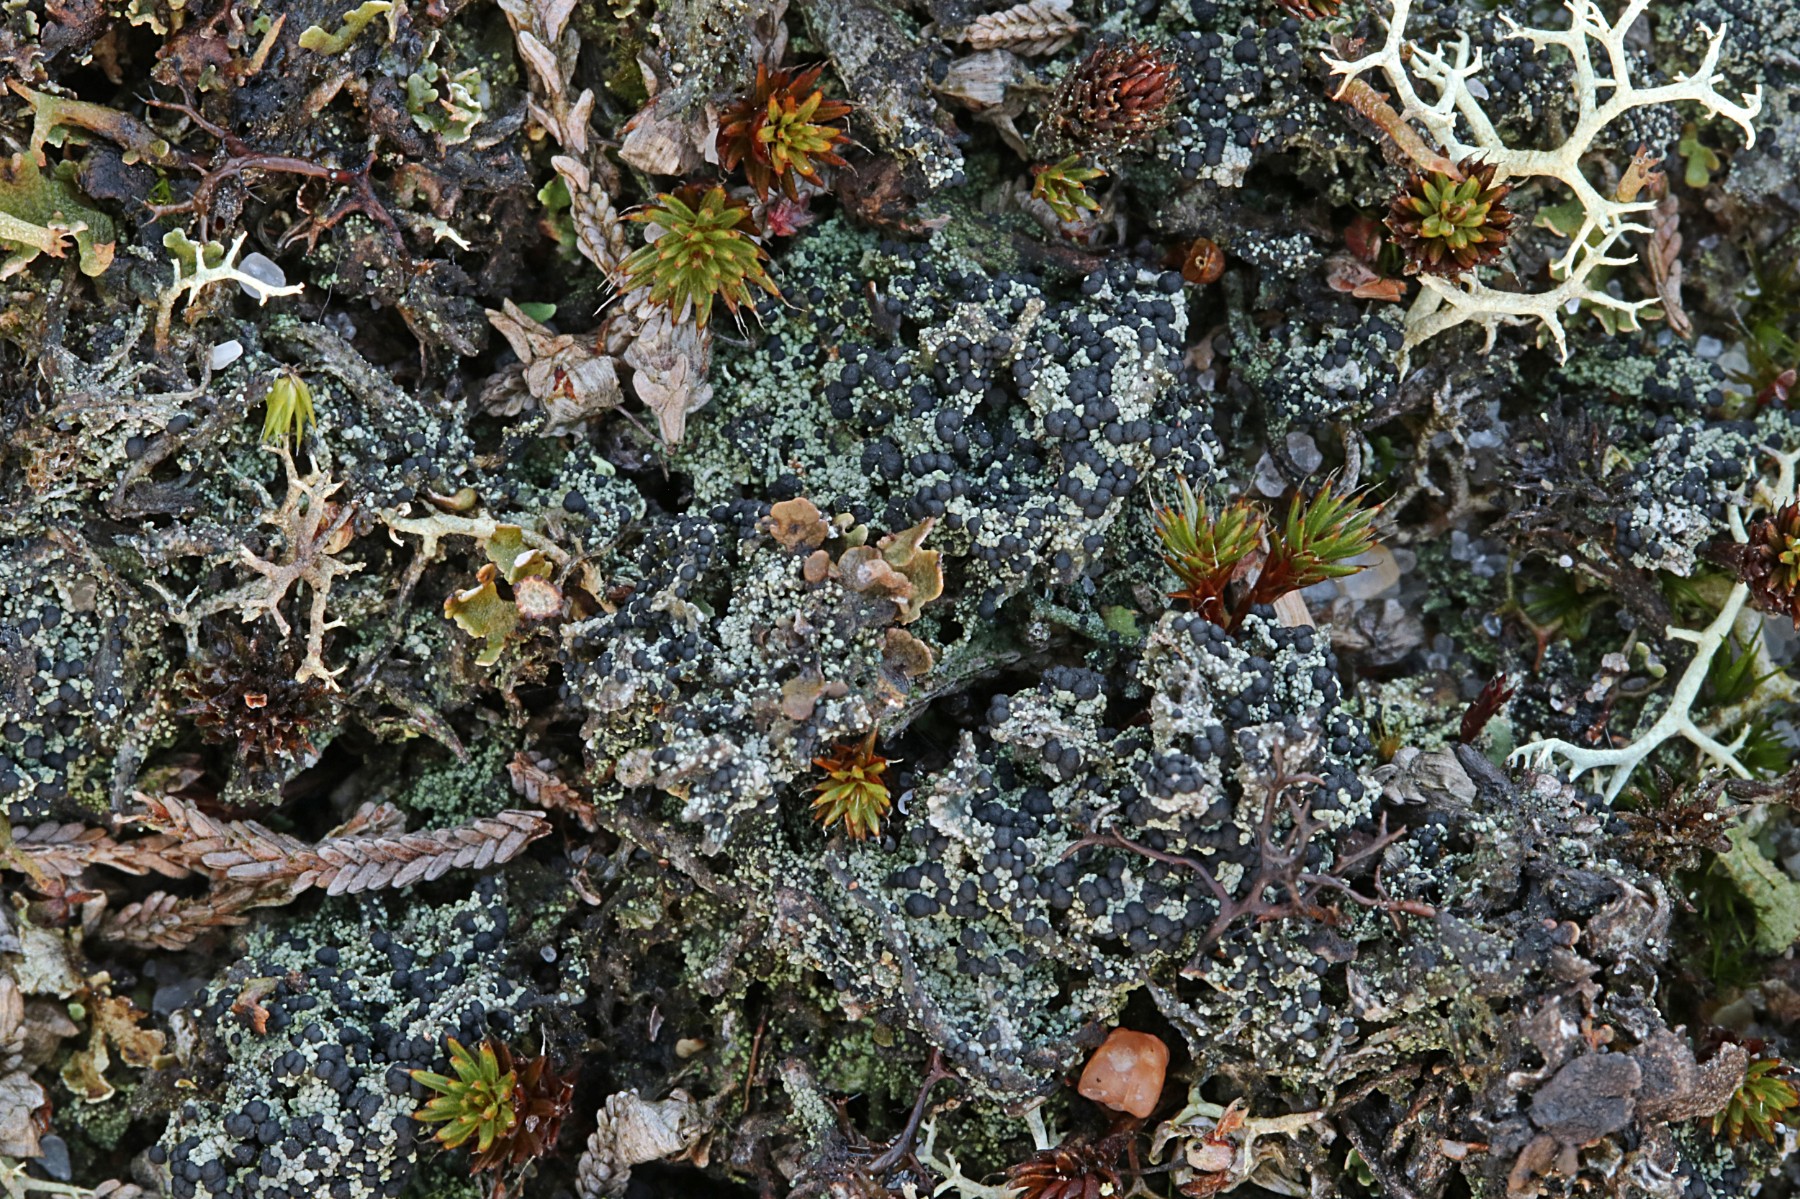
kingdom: Fungi
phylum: Ascomycota
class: Lecanoromycetes
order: Lecanorales
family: Byssolomataceae
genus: Micarea
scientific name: Micarea lignaria
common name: tørve-knaplav
